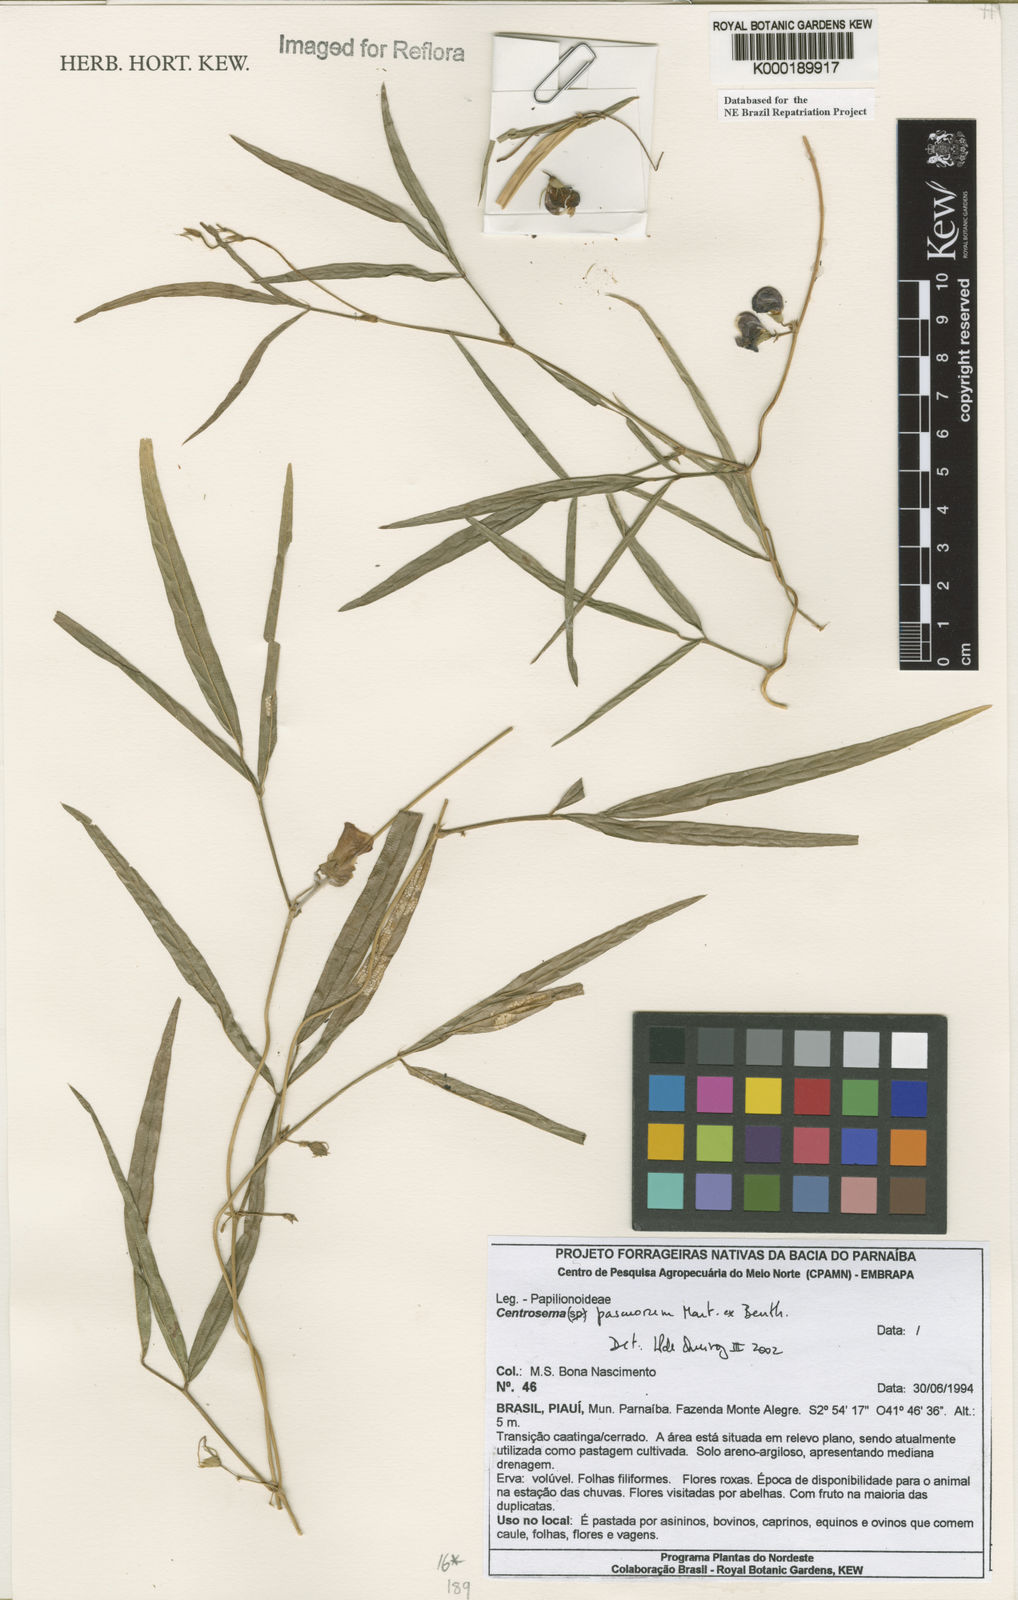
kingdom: Plantae
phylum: Tracheophyta
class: Magnoliopsida
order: Fabales
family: Fabaceae
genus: Centrosema
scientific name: Centrosema pascuorum
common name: Centurion
